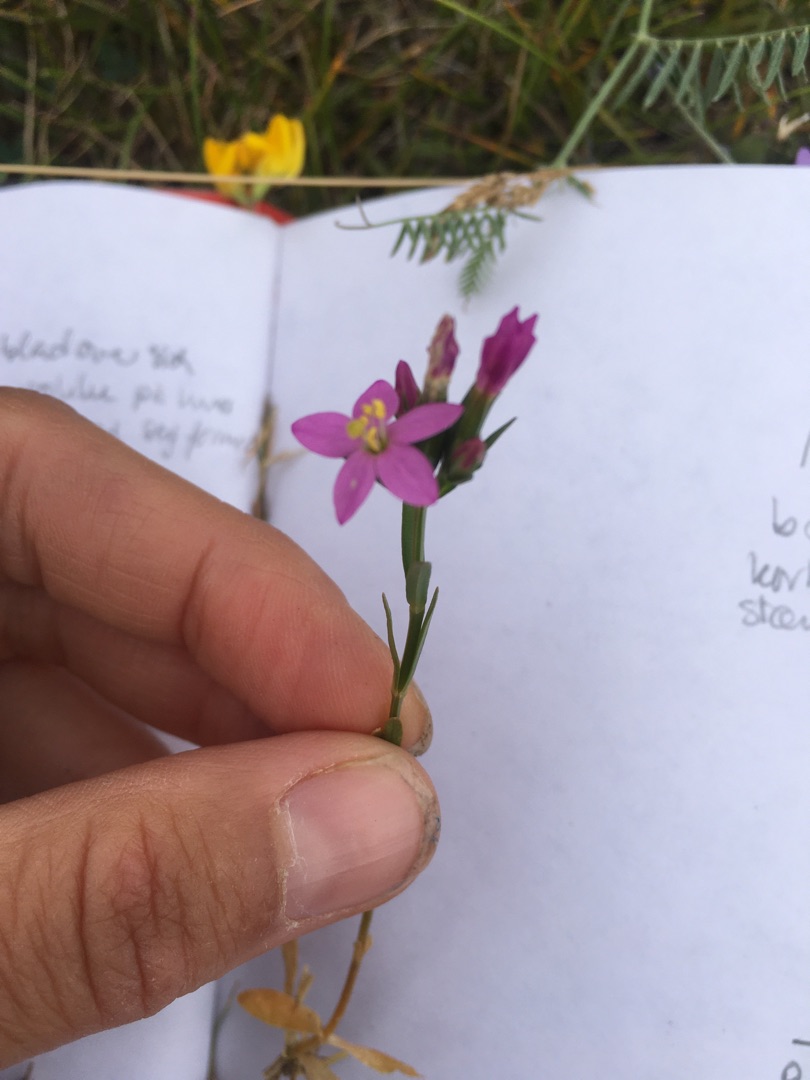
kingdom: Plantae
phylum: Tracheophyta
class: Magnoliopsida
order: Gentianales
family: Gentianaceae
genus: Centaurium
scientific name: Centaurium littorale
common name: Strand-tusindgylden
